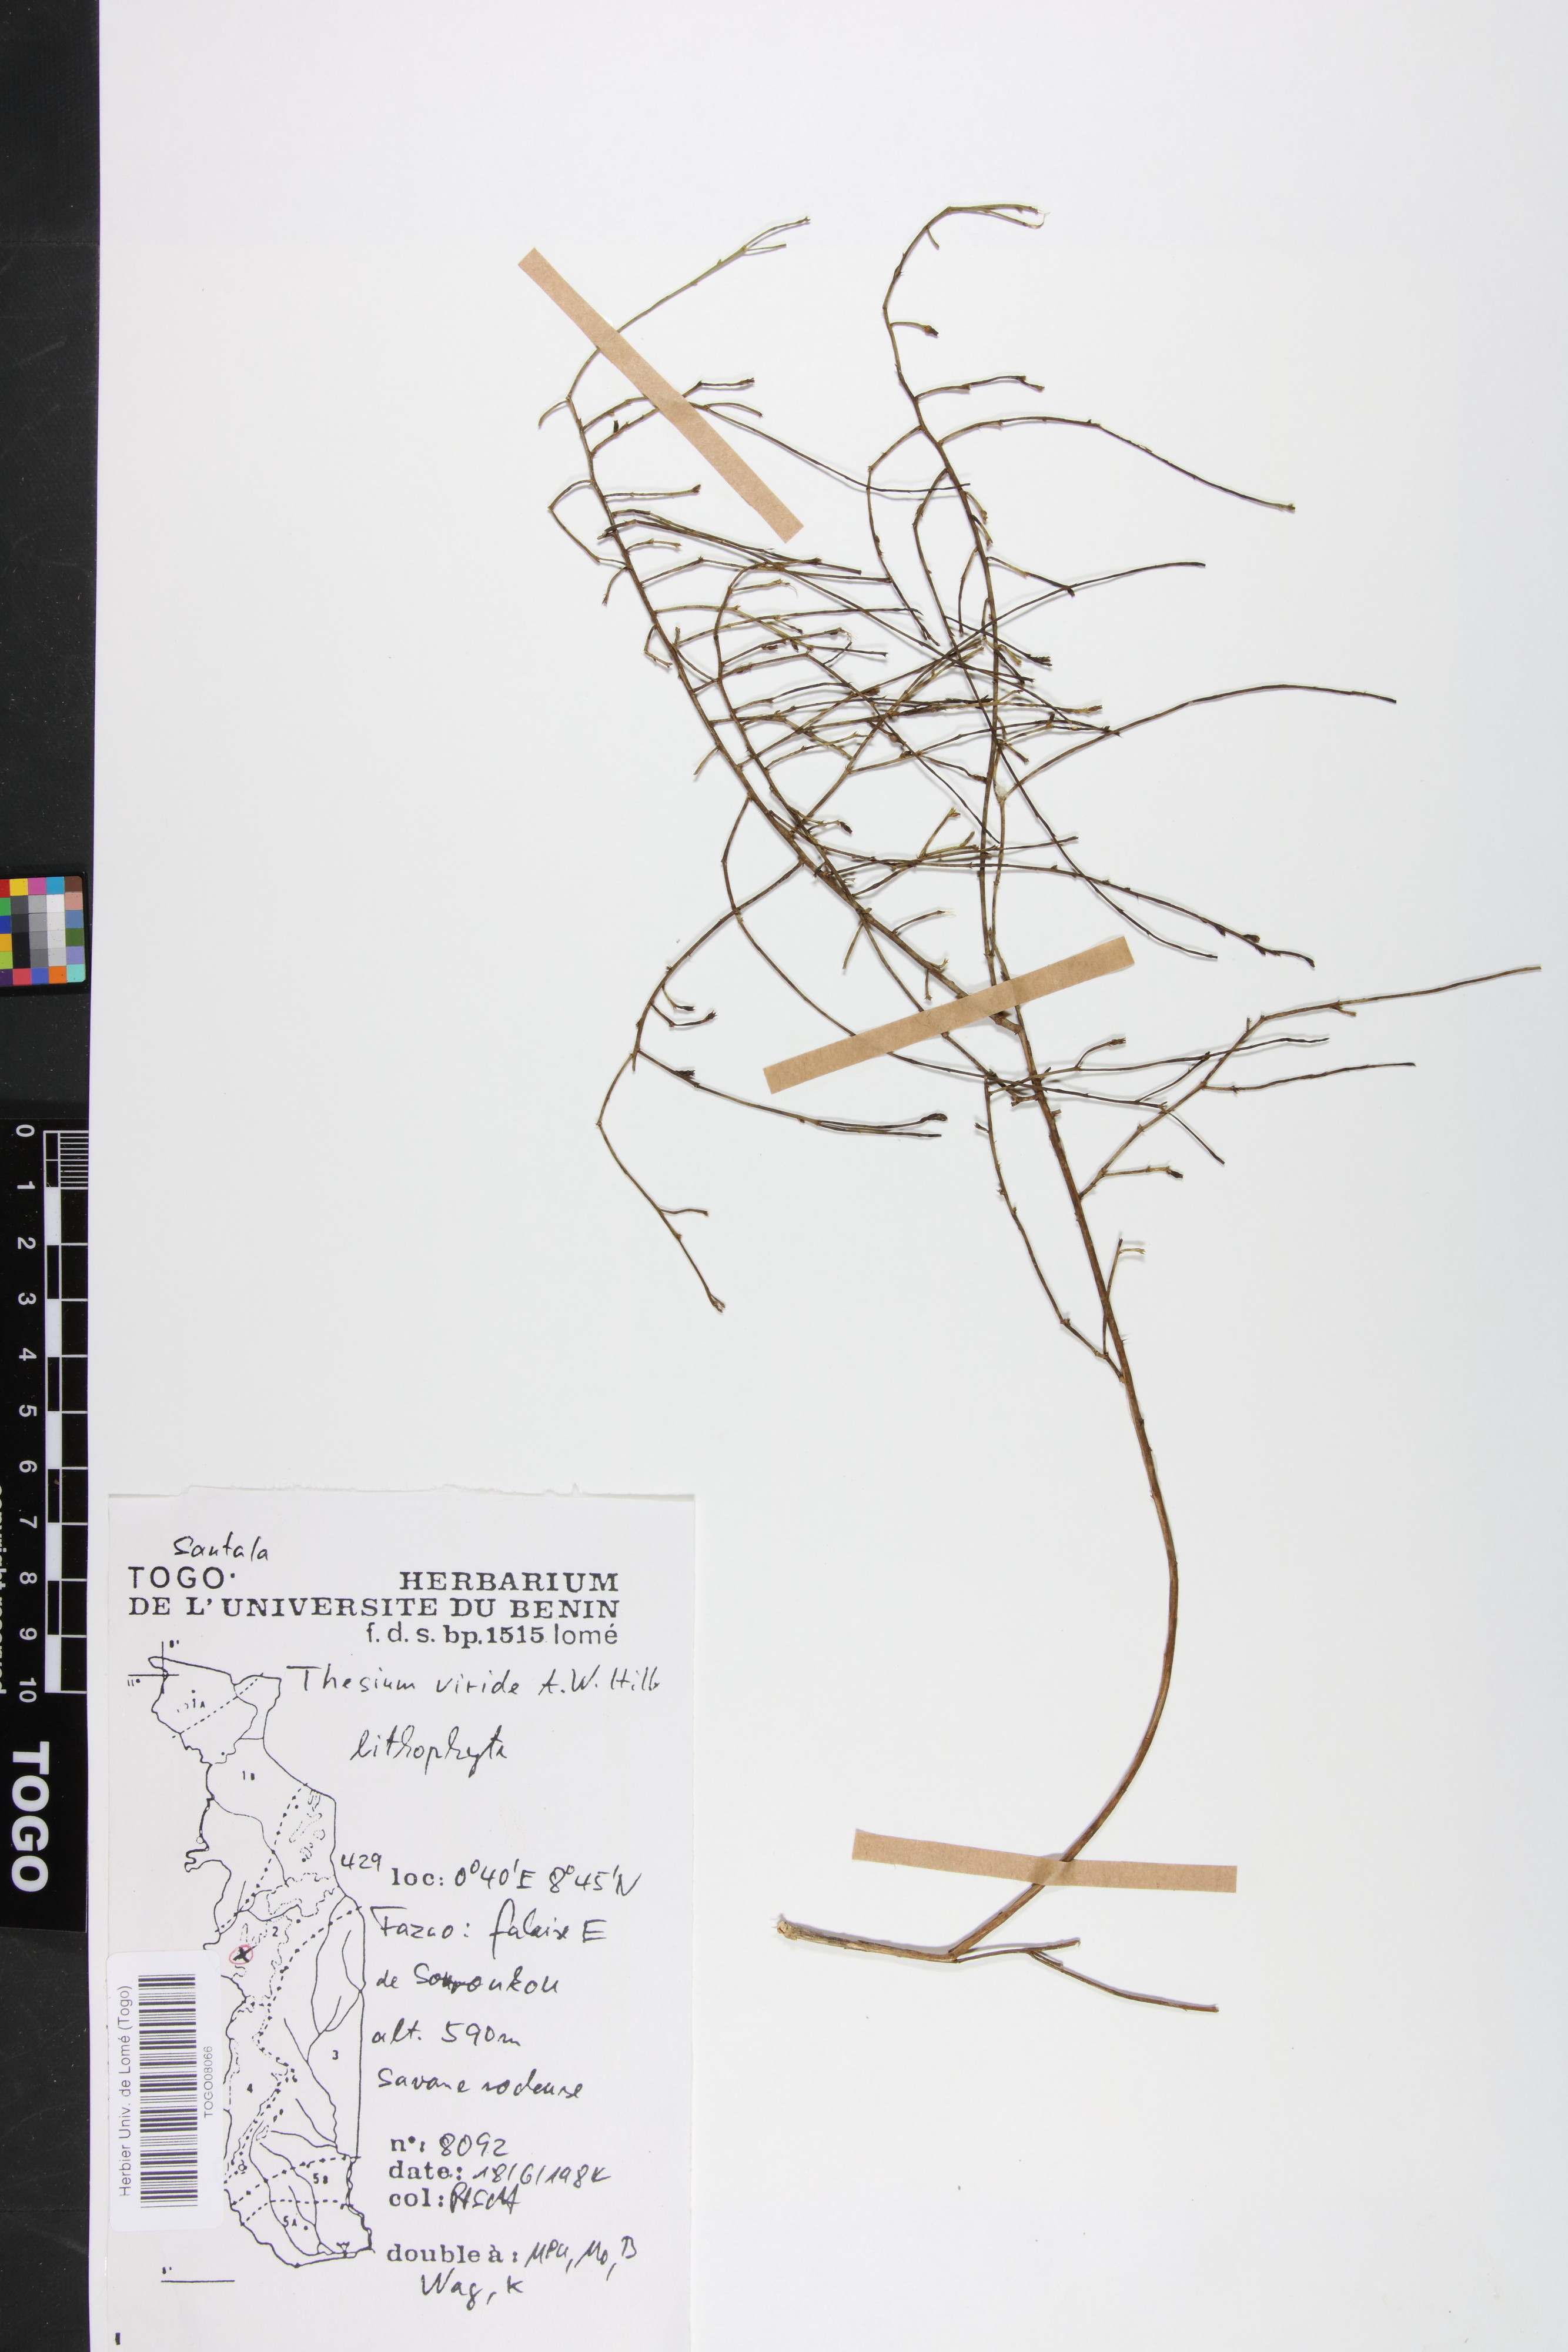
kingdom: Plantae
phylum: Tracheophyta
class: Magnoliopsida
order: Santalales
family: Thesiaceae
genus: Thesium
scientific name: Thesium viride
